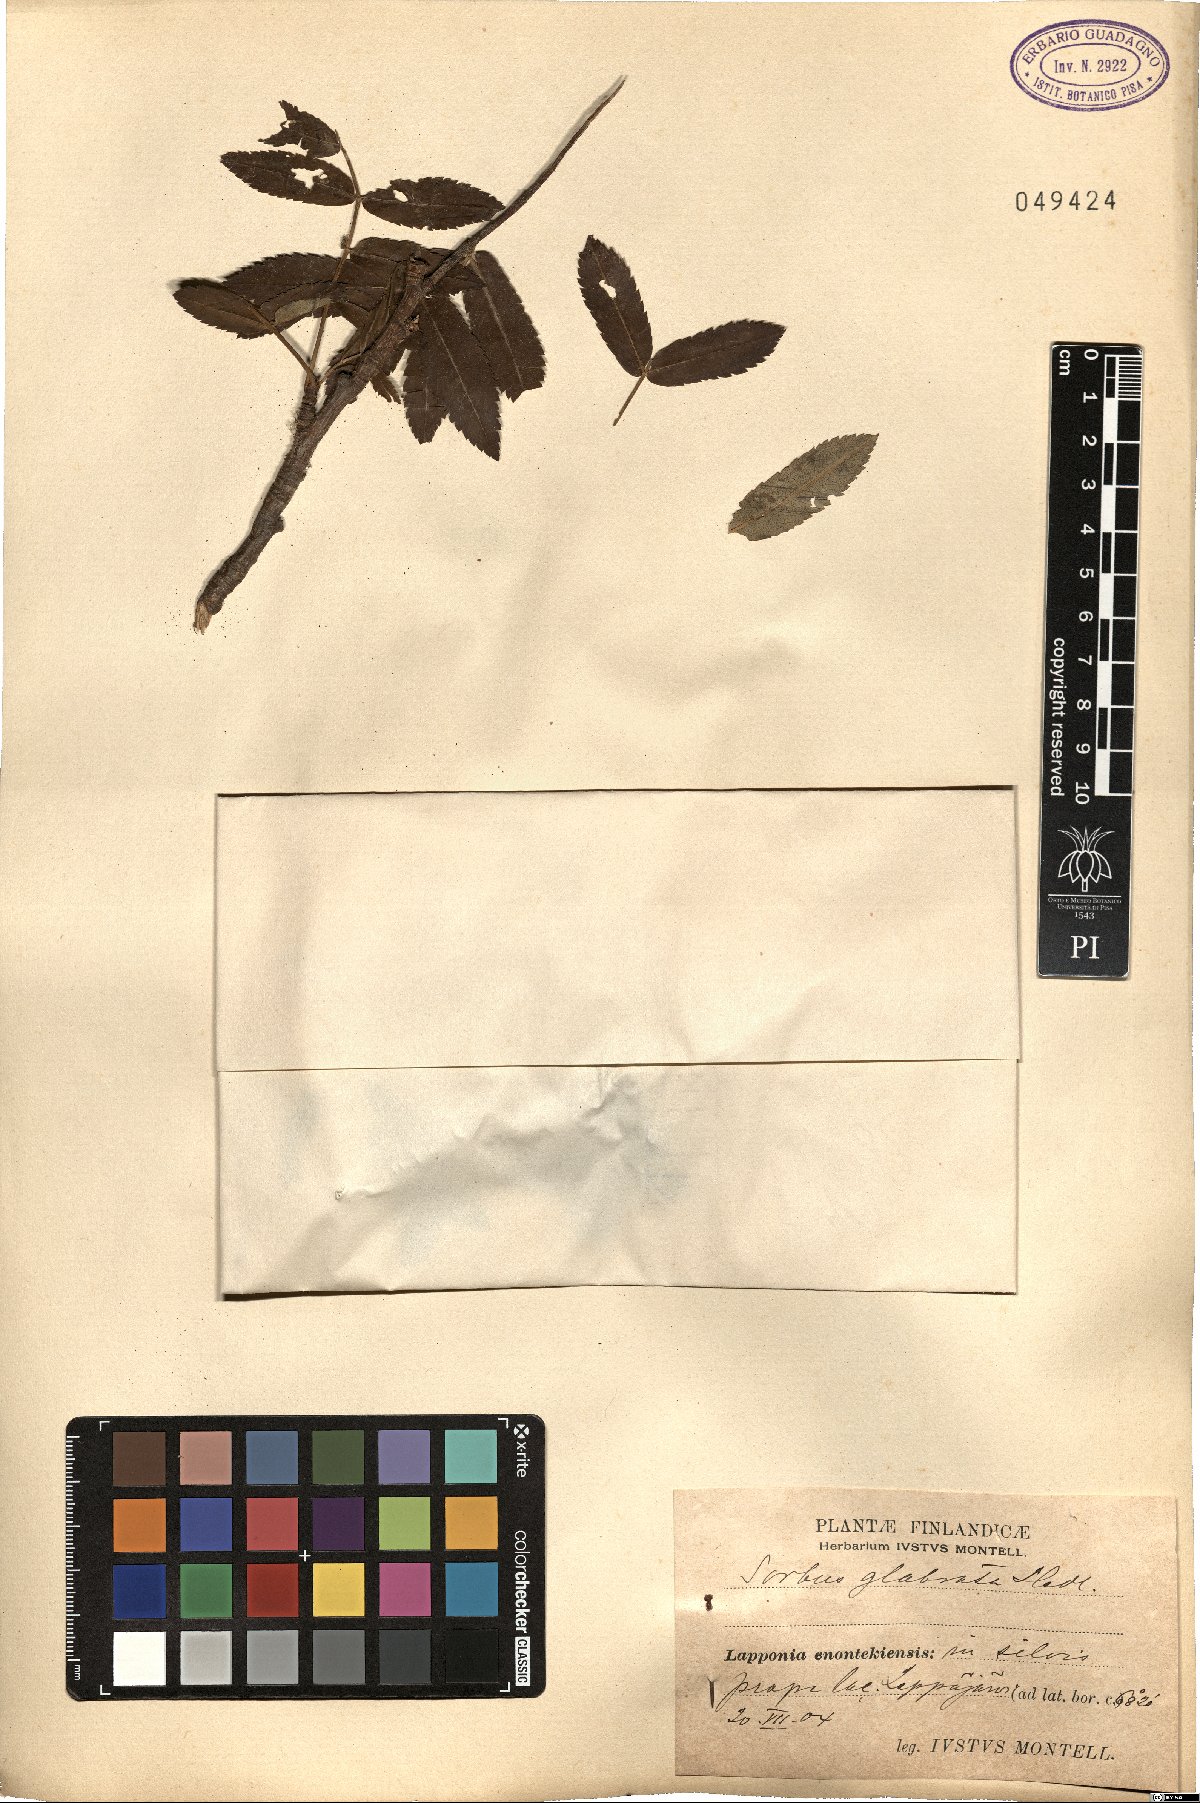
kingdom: Plantae
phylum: Tracheophyta
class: Magnoliopsida
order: Rosales
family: Rosaceae
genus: Sorbus
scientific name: Sorbus aucuparia
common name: Rowan
